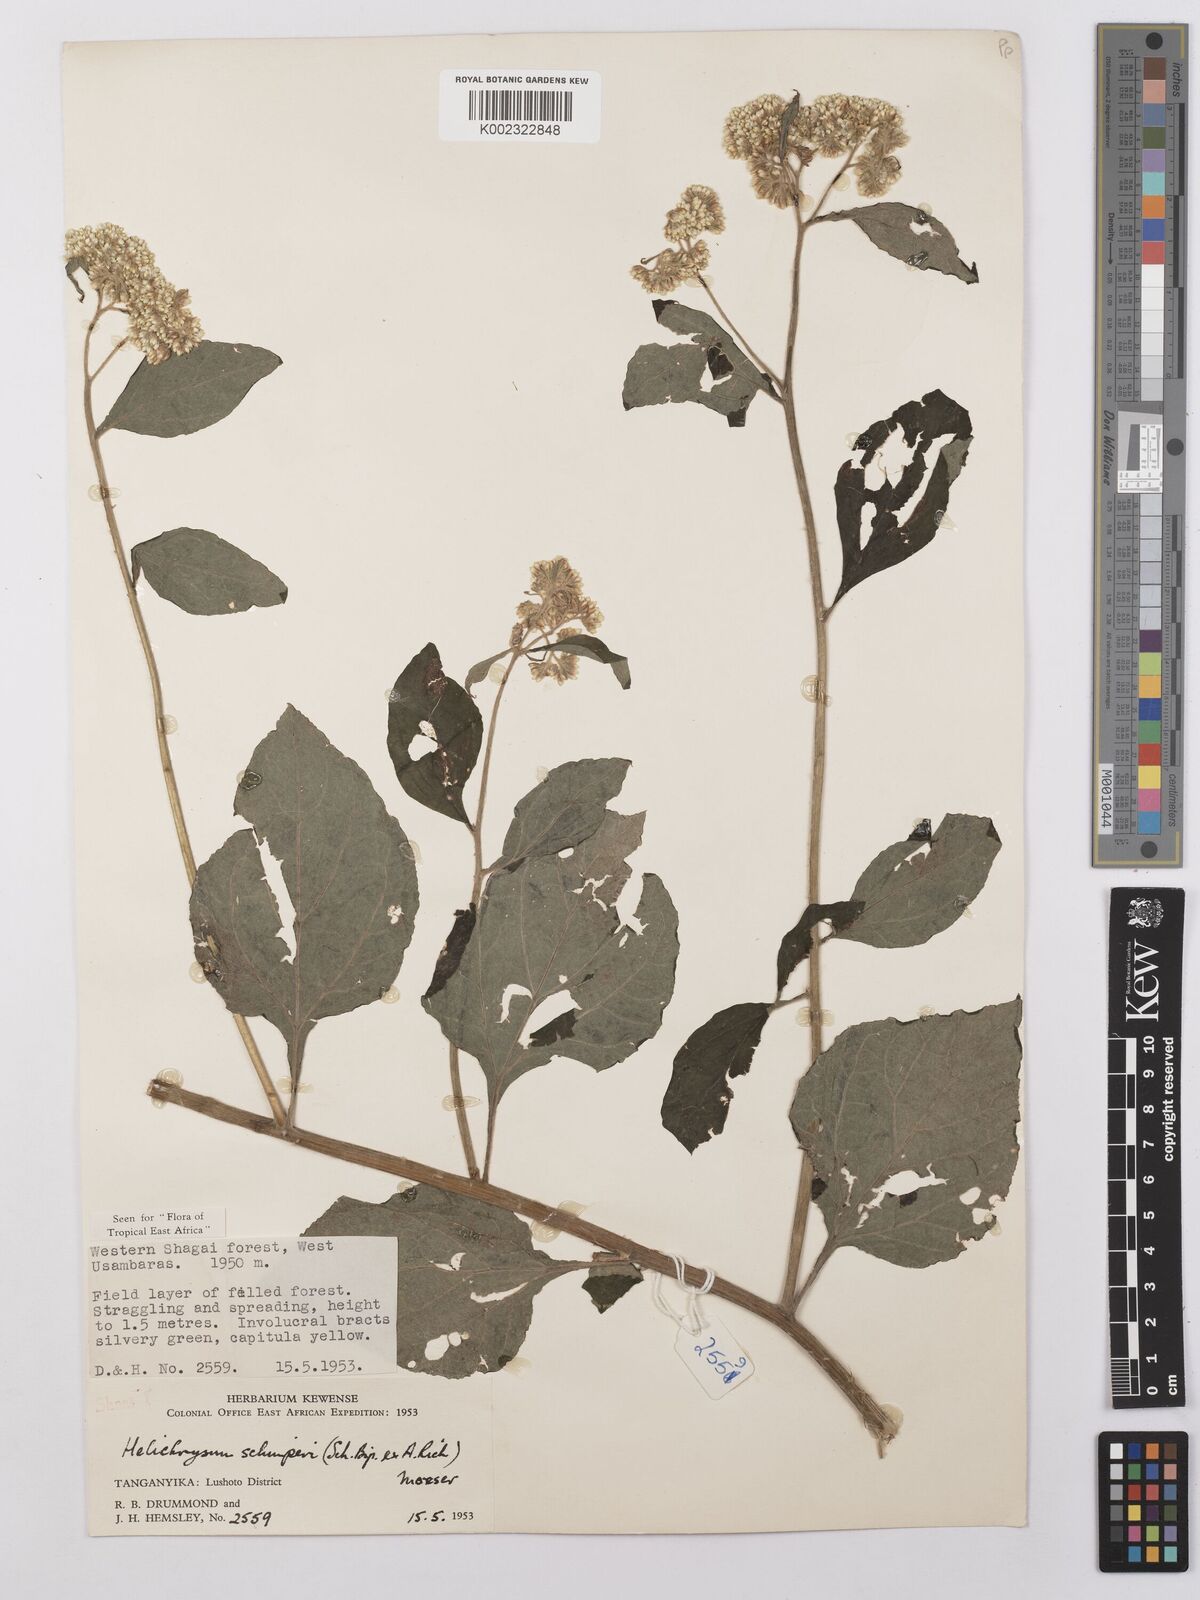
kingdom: Plantae
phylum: Tracheophyta
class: Magnoliopsida
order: Asterales
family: Asteraceae
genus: Helichrysum
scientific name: Helichrysum schimperi
